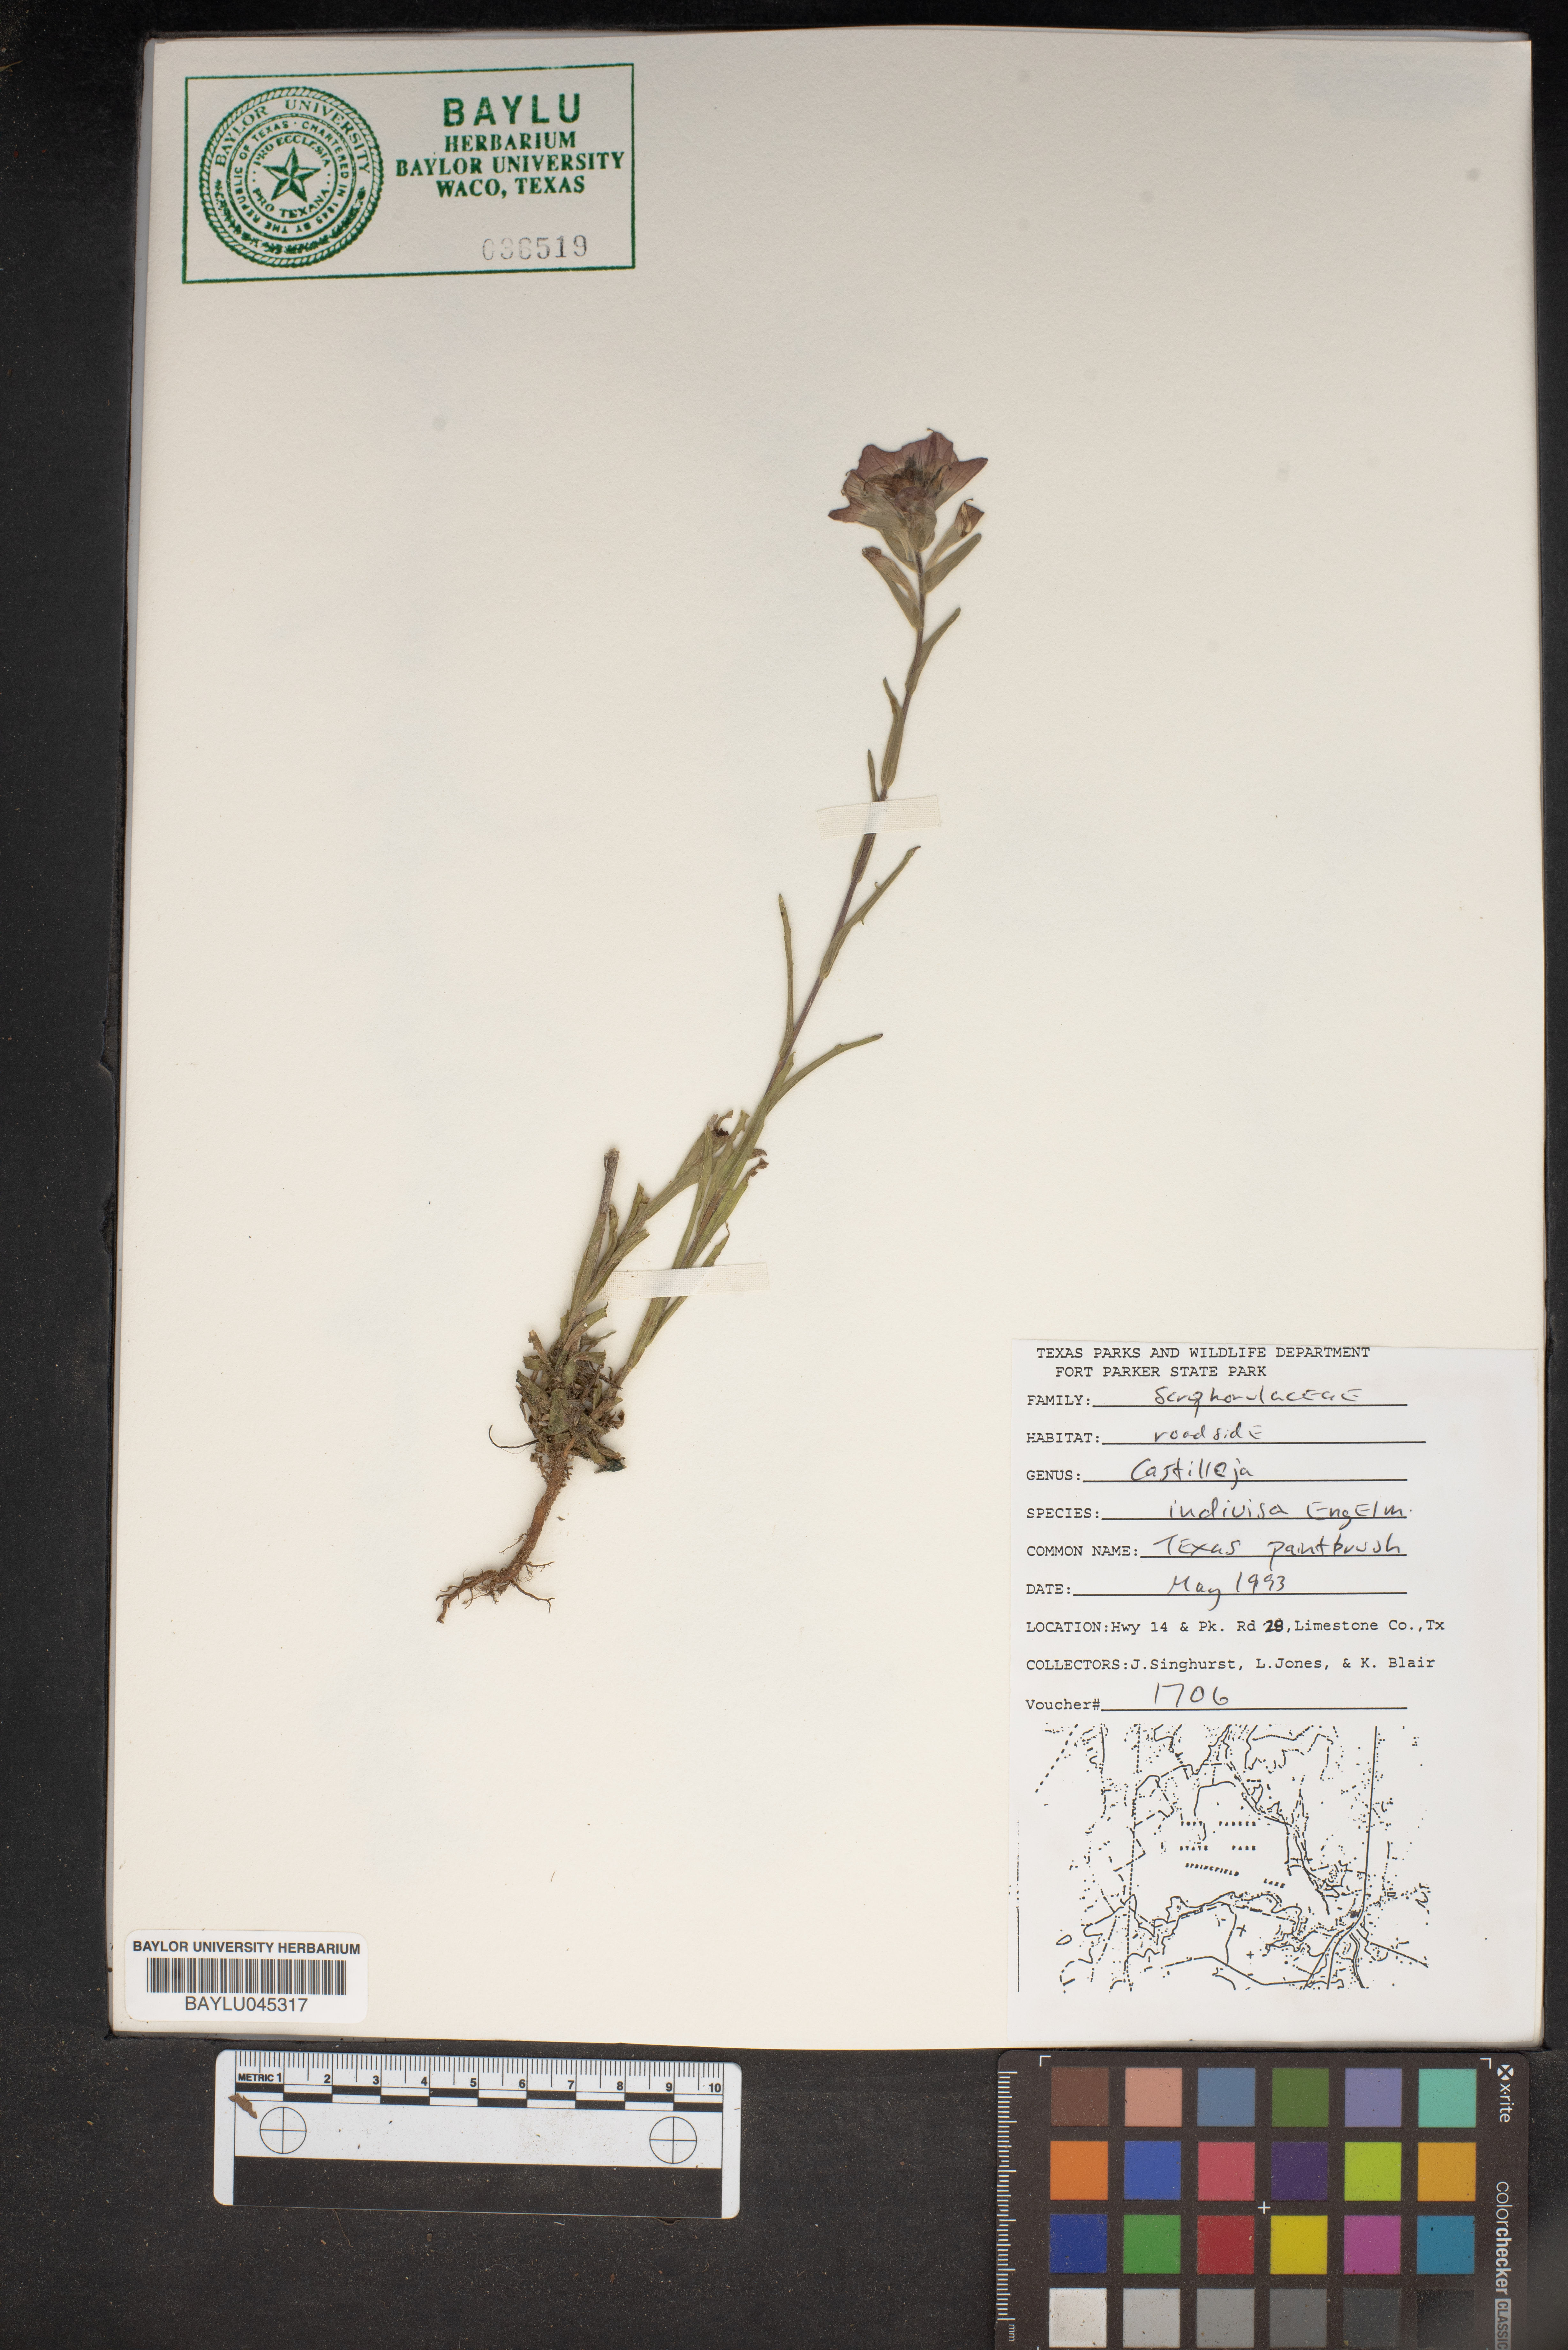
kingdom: Plantae
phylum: Tracheophyta
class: Magnoliopsida
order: Lamiales
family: Orobanchaceae
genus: Castilleja
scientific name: Castilleja indivisa
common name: Texas paintbrush
